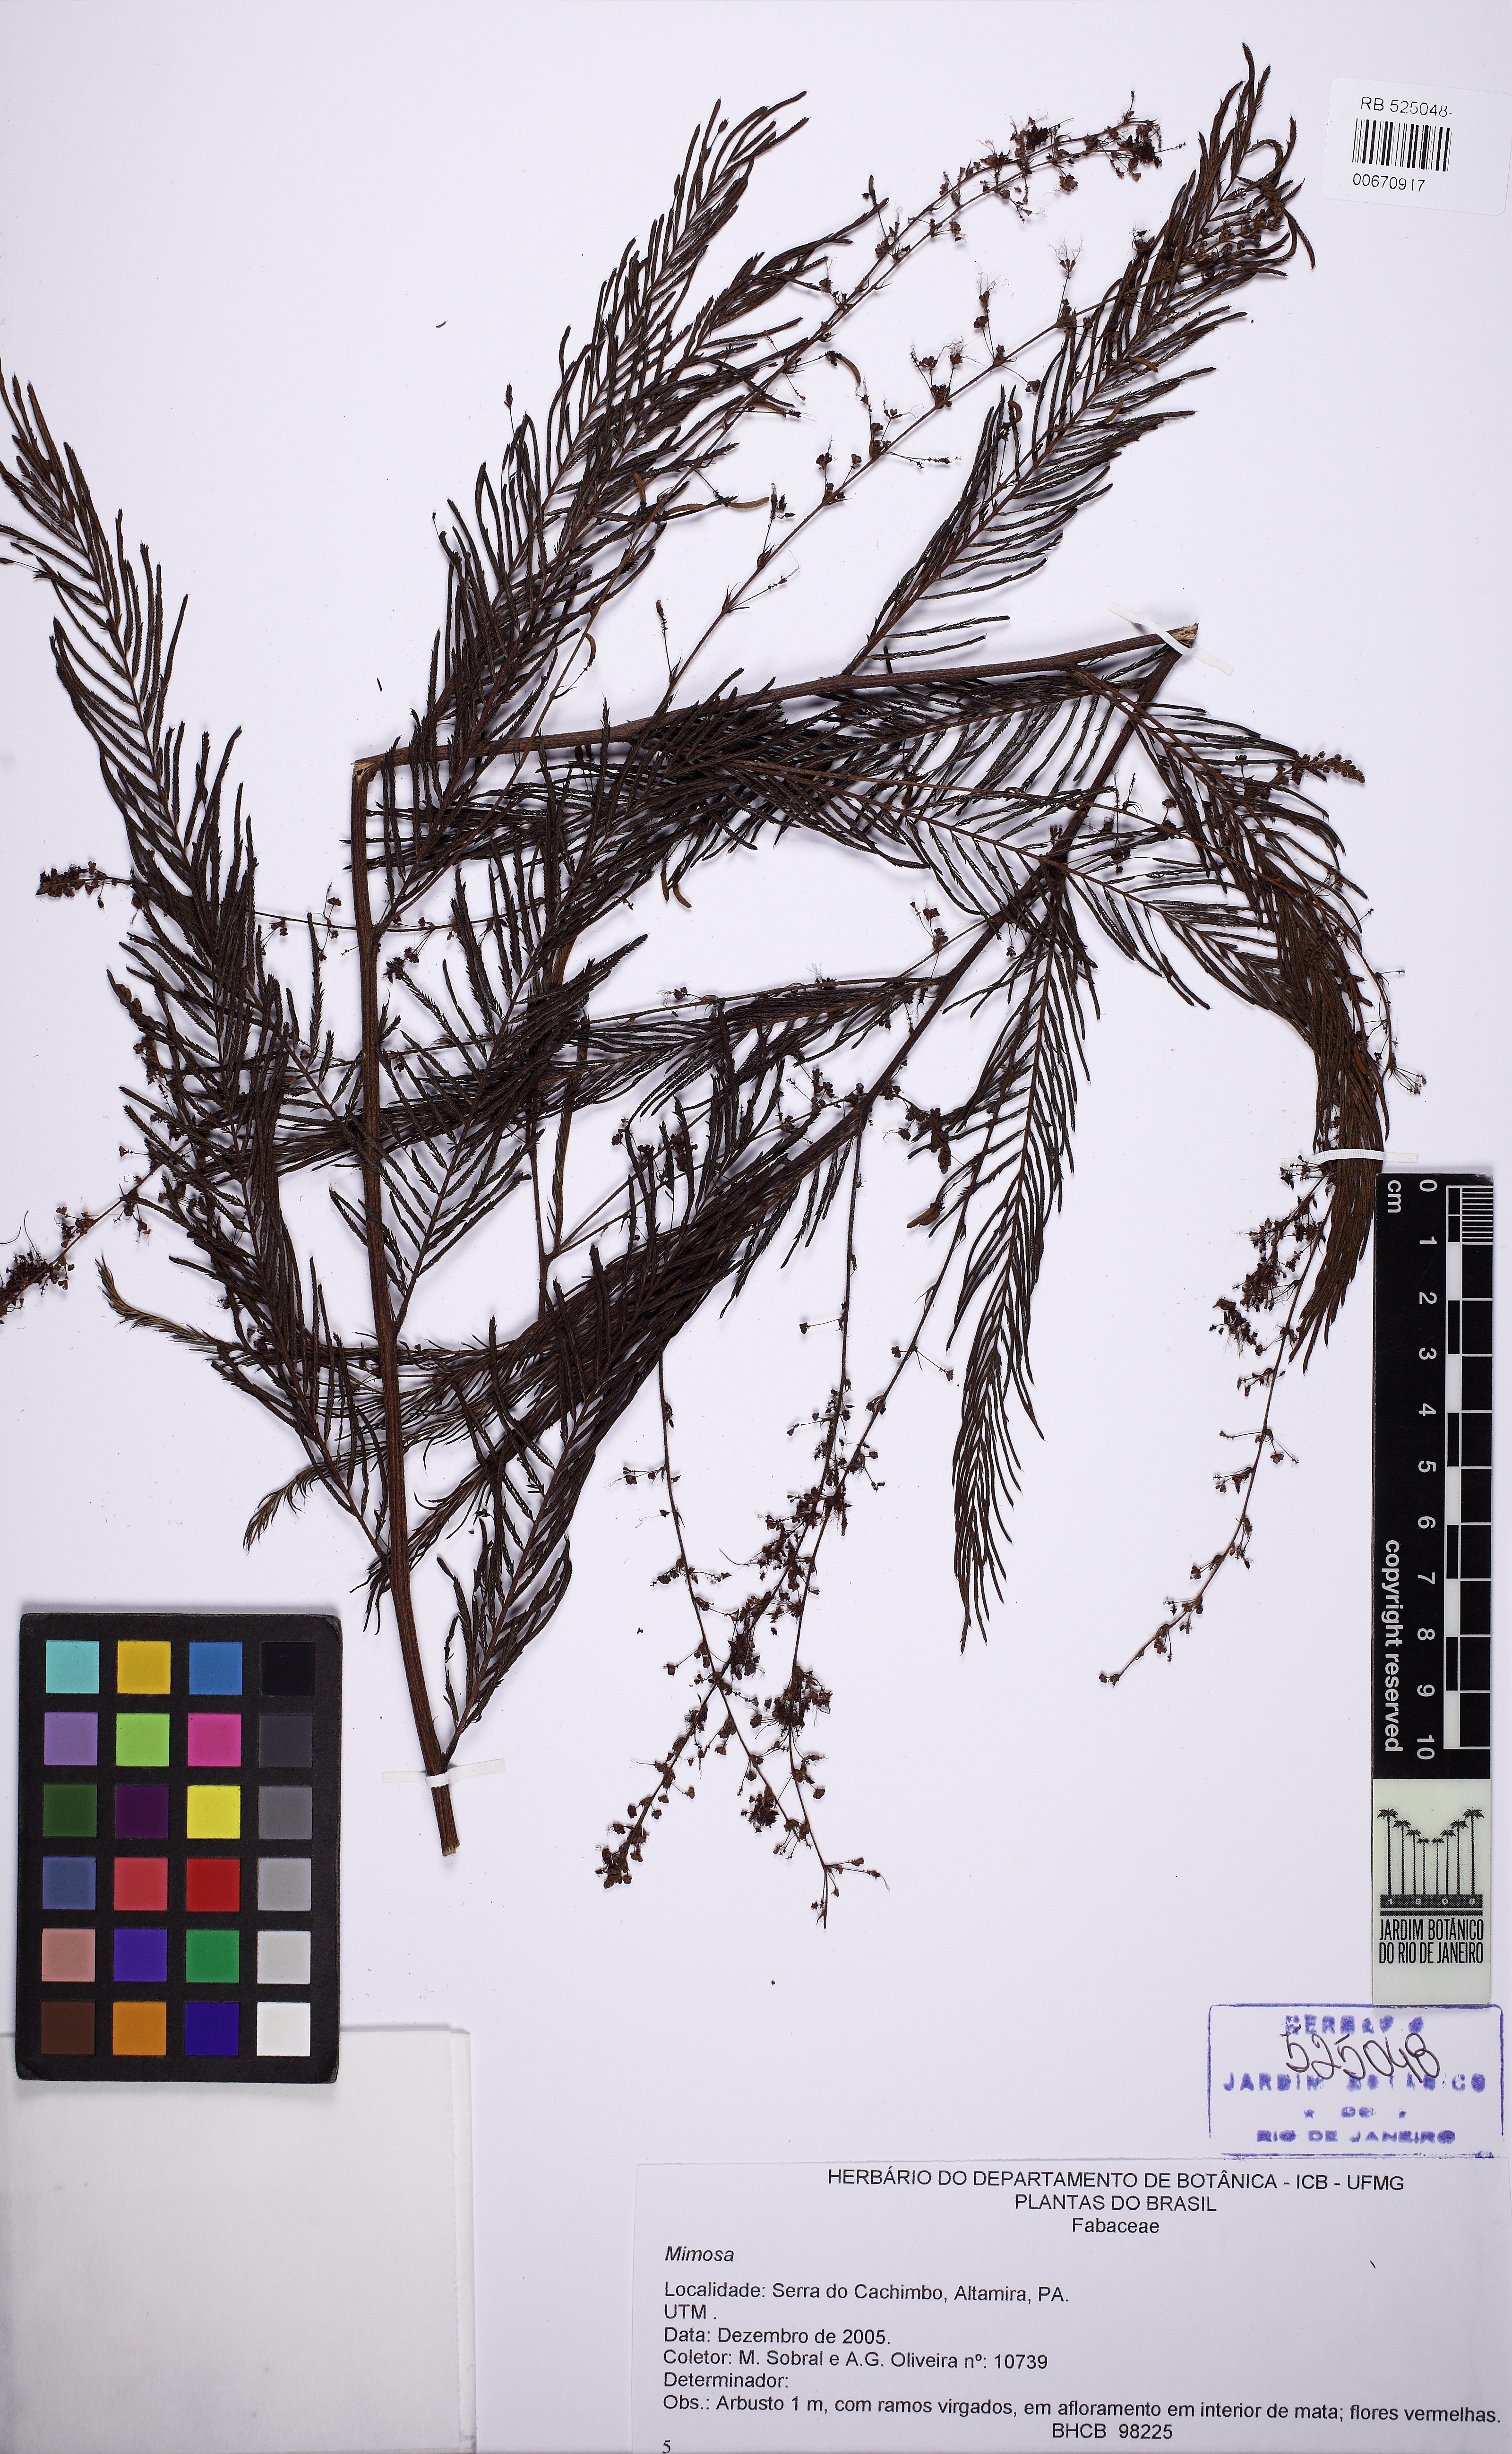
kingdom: Plantae
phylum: Tracheophyta
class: Magnoliopsida
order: Fabales
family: Fabaceae
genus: Mimosa
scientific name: Mimosa
